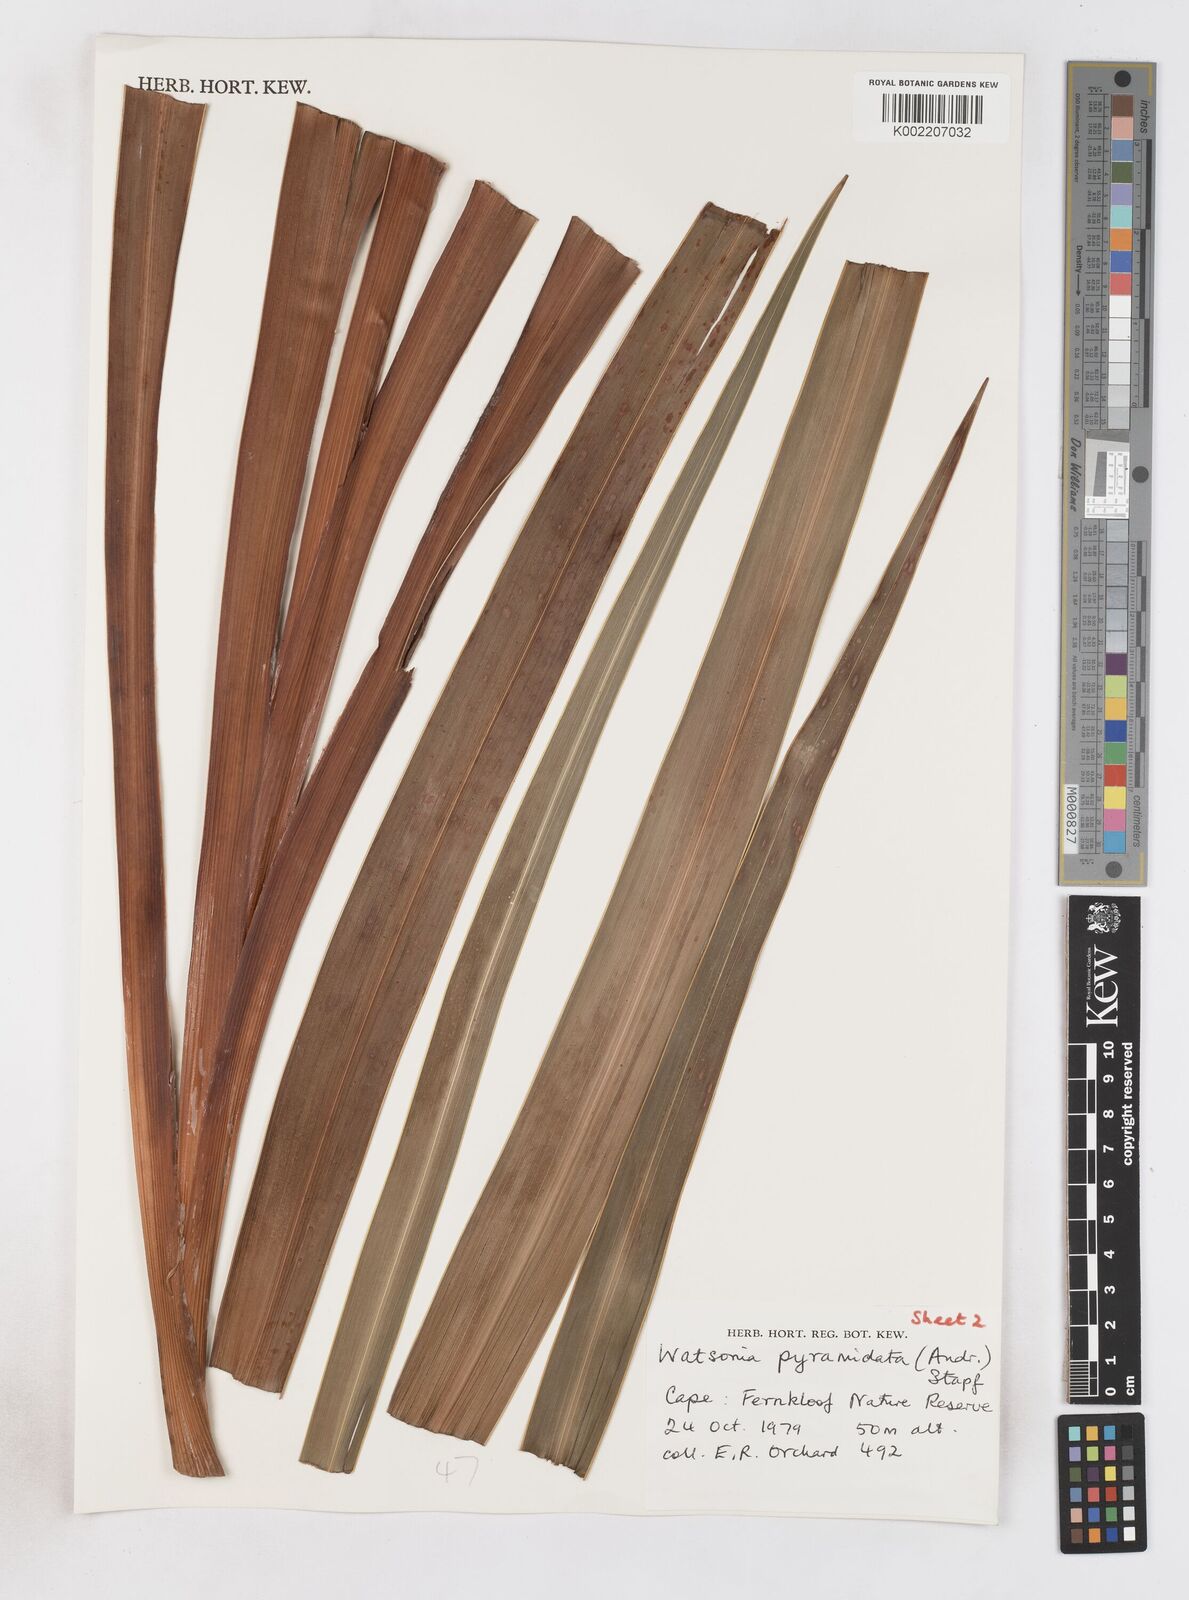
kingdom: Plantae
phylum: Tracheophyta
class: Liliopsida
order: Asparagales
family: Iridaceae
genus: Watsonia
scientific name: Watsonia borbonica
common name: Bugle-lily
